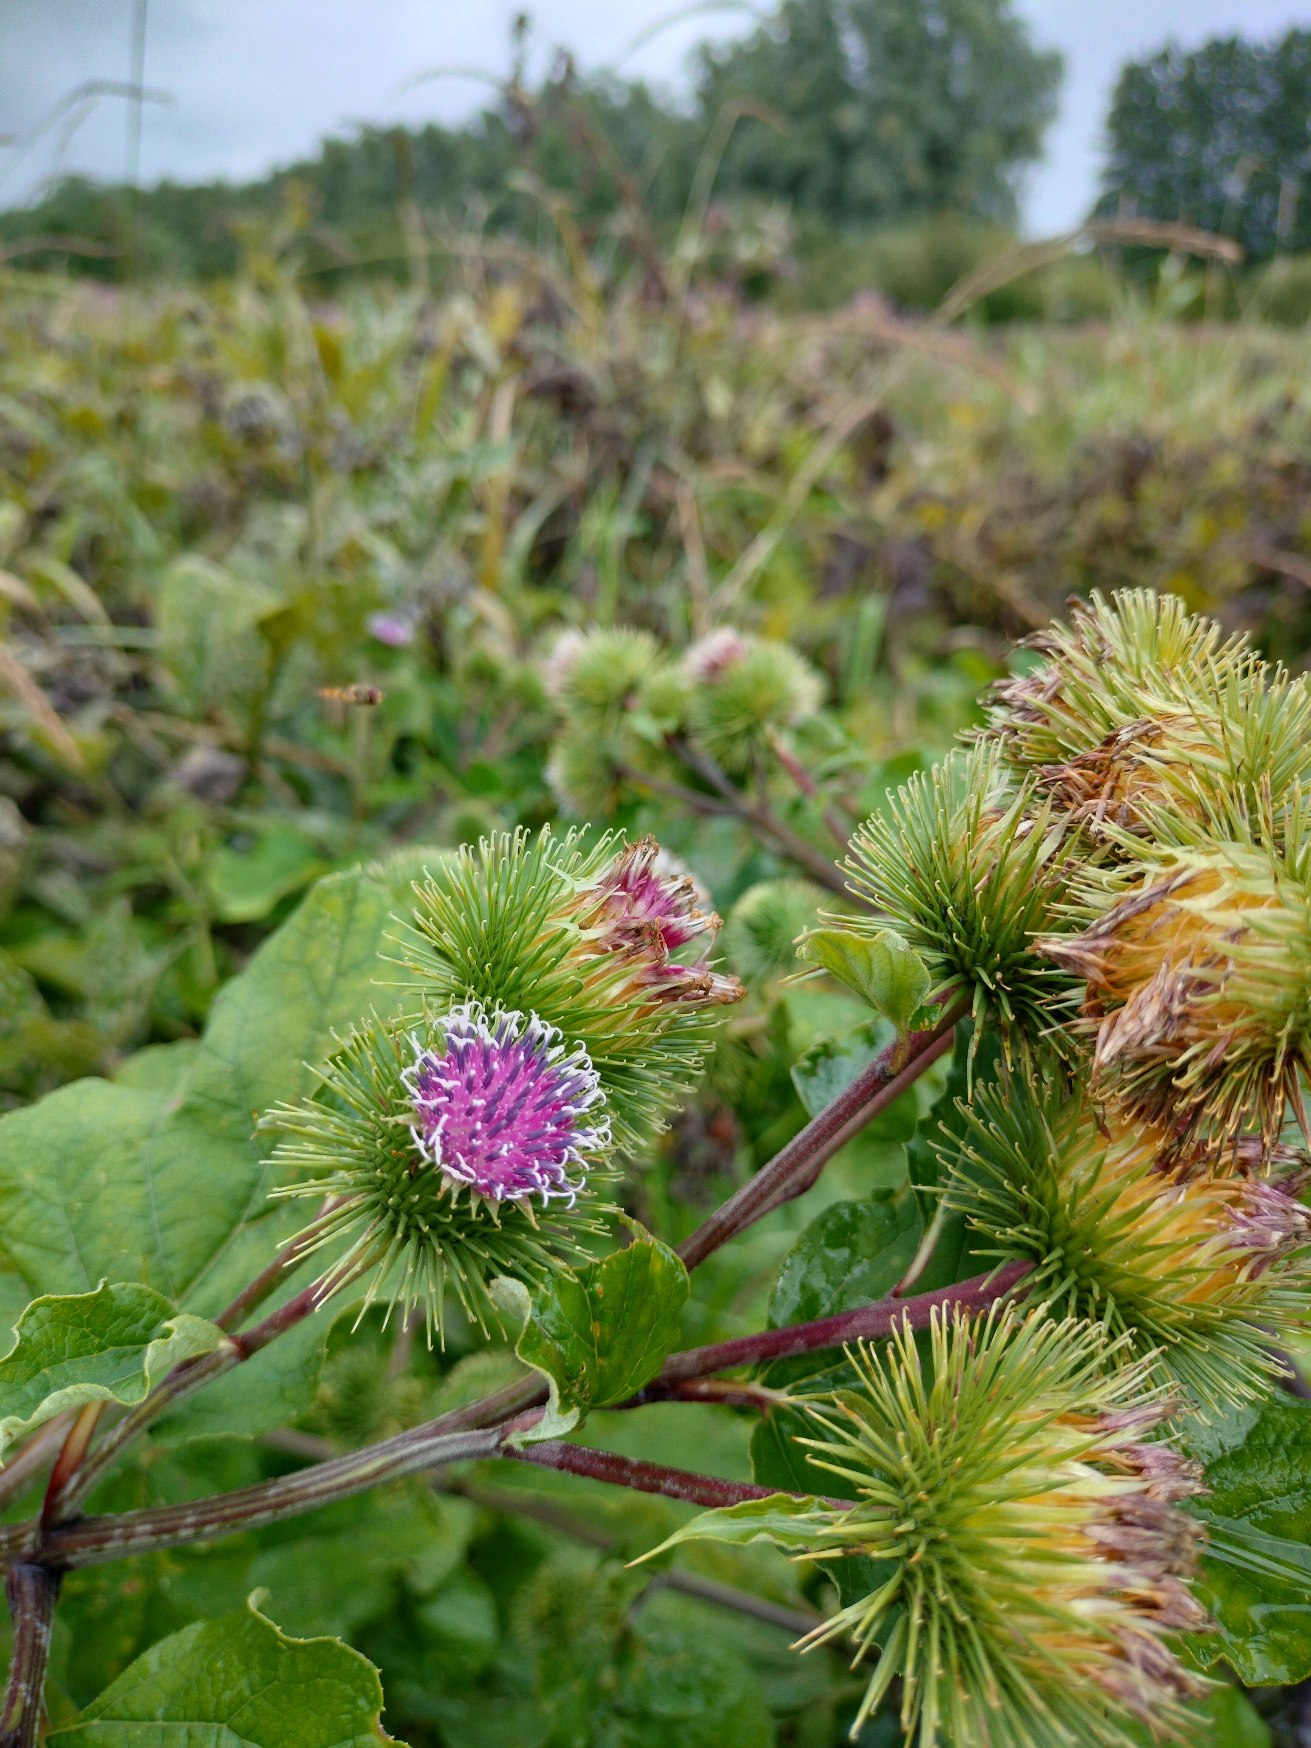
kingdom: Plantae
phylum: Tracheophyta
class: Magnoliopsida
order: Asterales
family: Asteraceae
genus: Arctium
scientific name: Arctium lappa
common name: Glat burre
